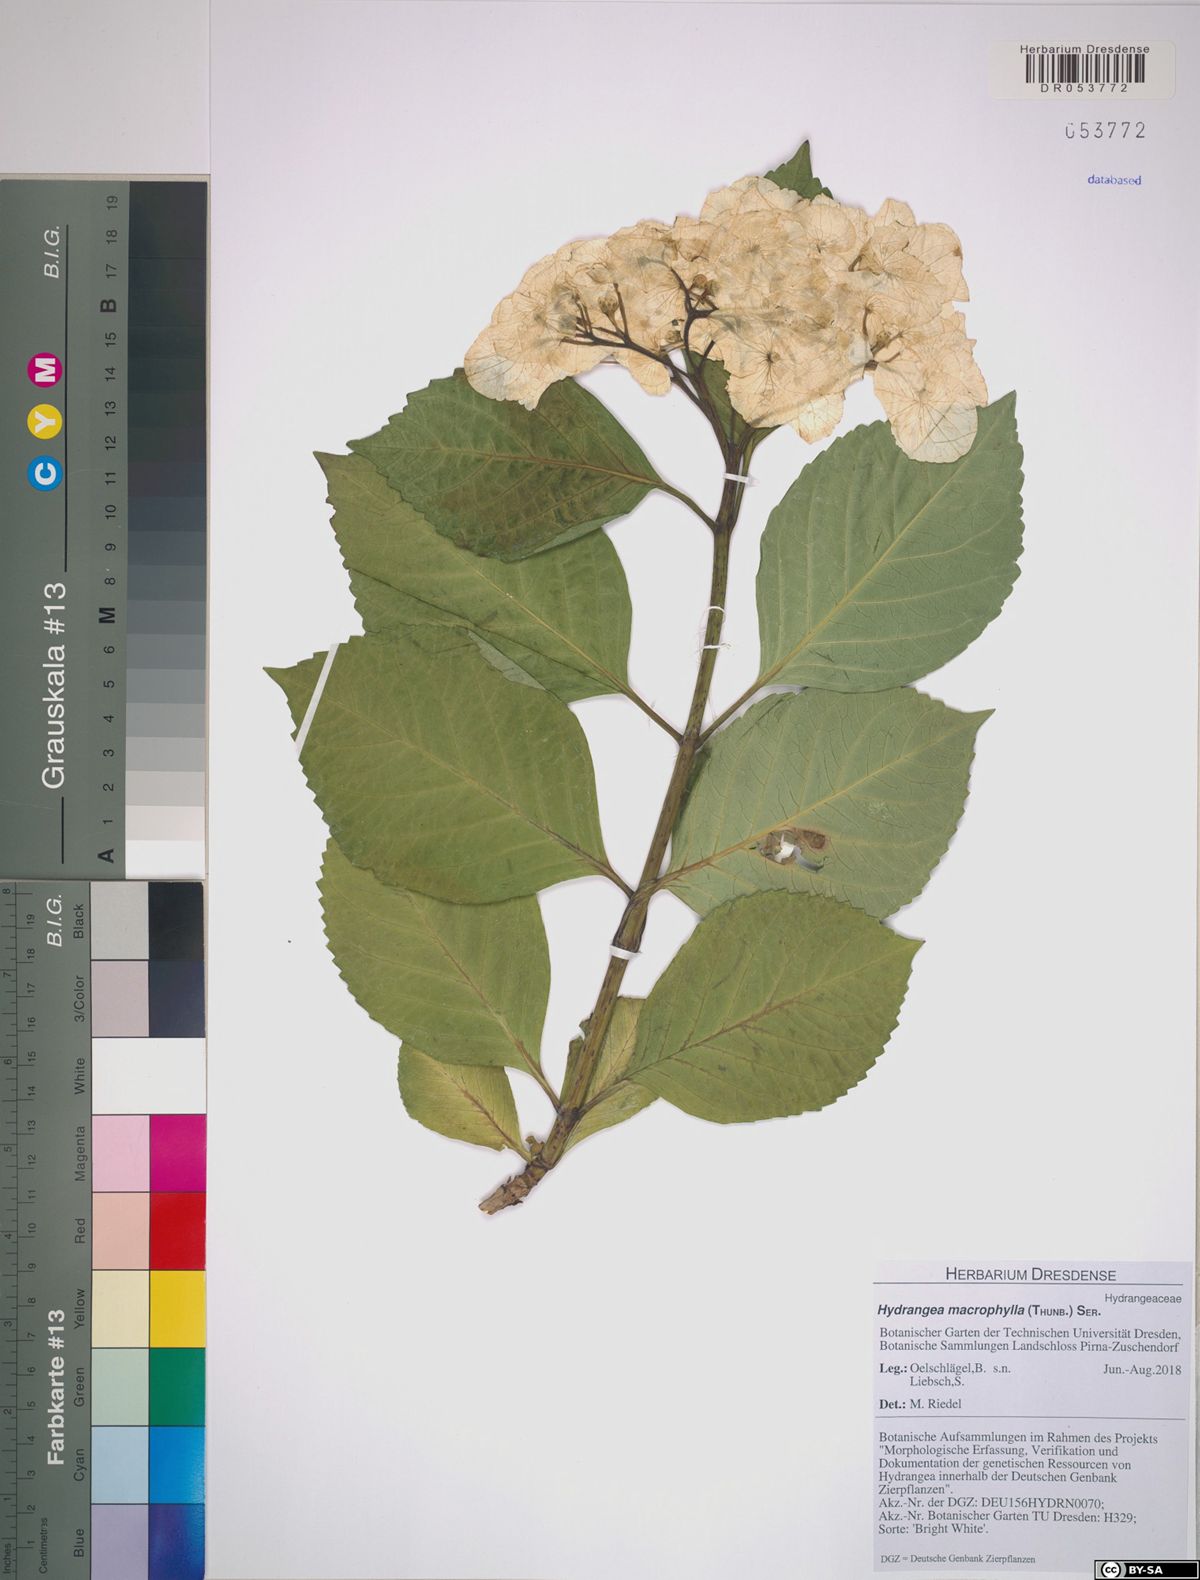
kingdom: Plantae
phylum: Tracheophyta
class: Magnoliopsida
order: Cornales
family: Hydrangeaceae
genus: Hydrangea
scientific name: Hydrangea macrophylla
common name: Hydrangea
